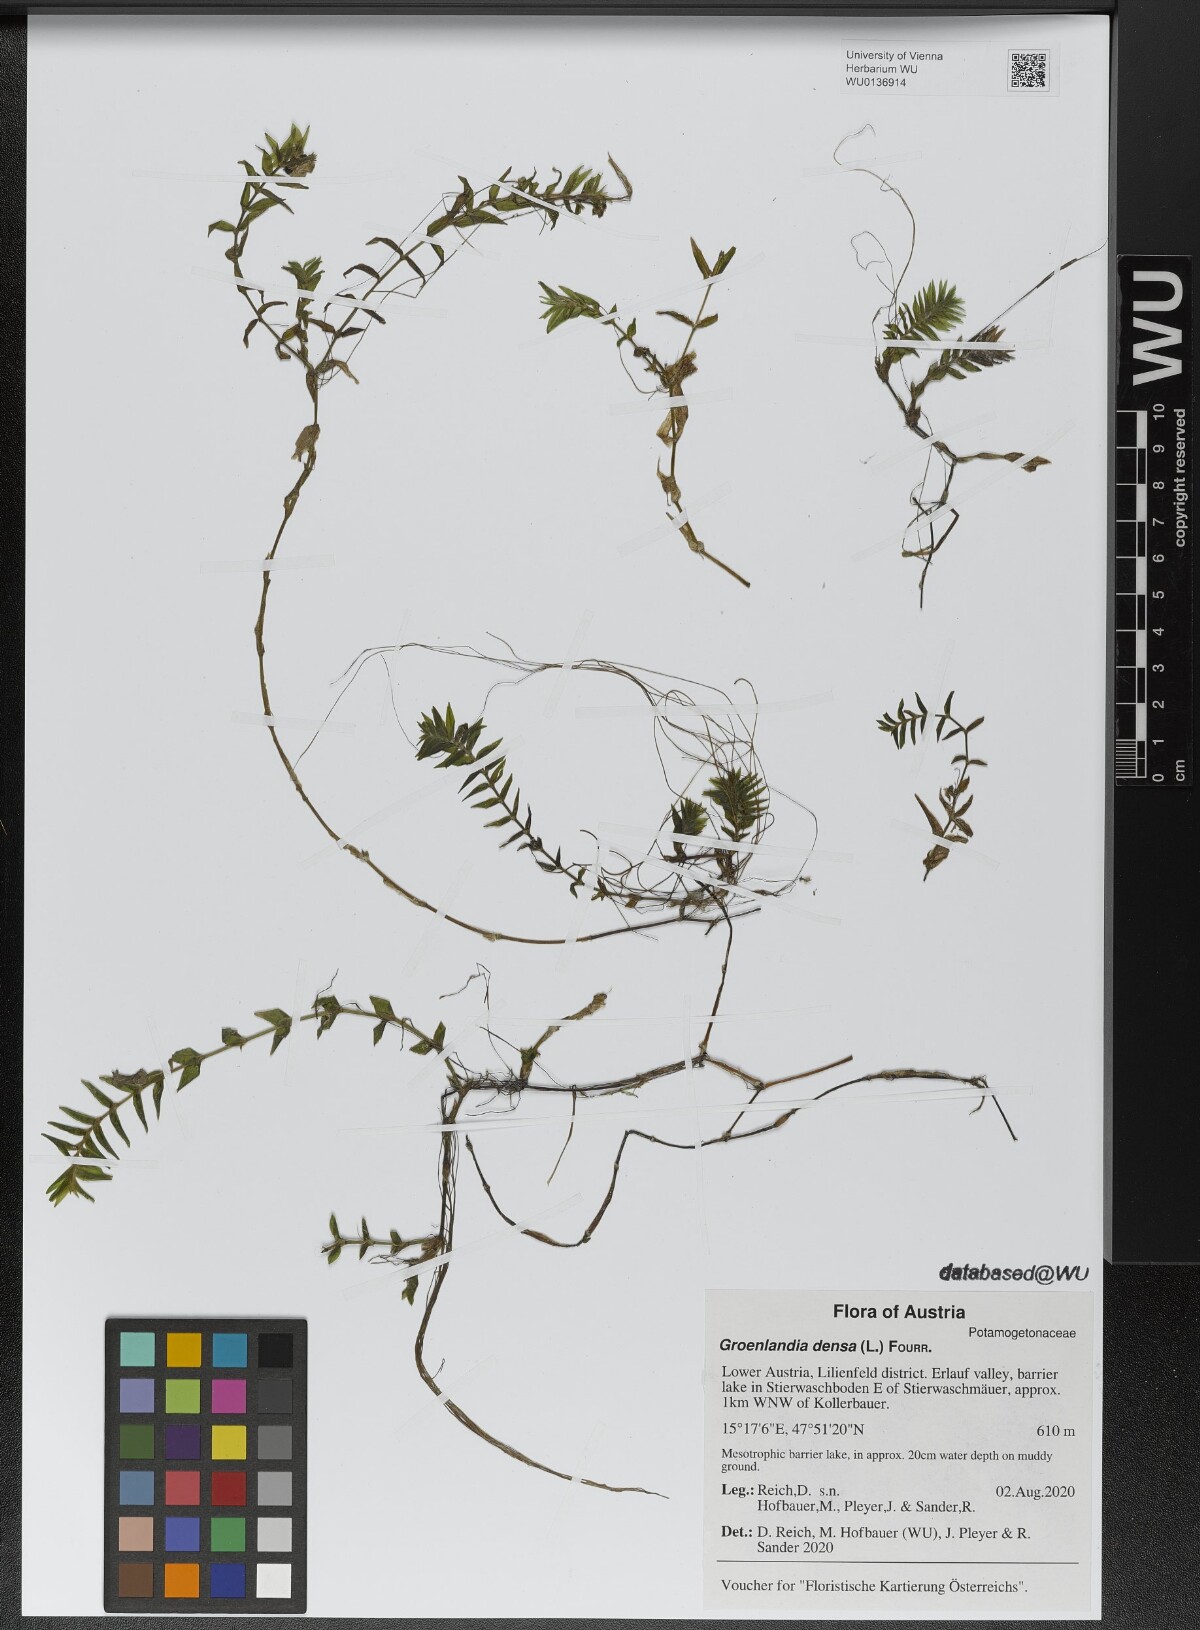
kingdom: Plantae
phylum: Tracheophyta
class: Liliopsida
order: Alismatales
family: Potamogetonaceae
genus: Groenlandia
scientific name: Groenlandia densa
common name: Opposite-leaved pondweed
